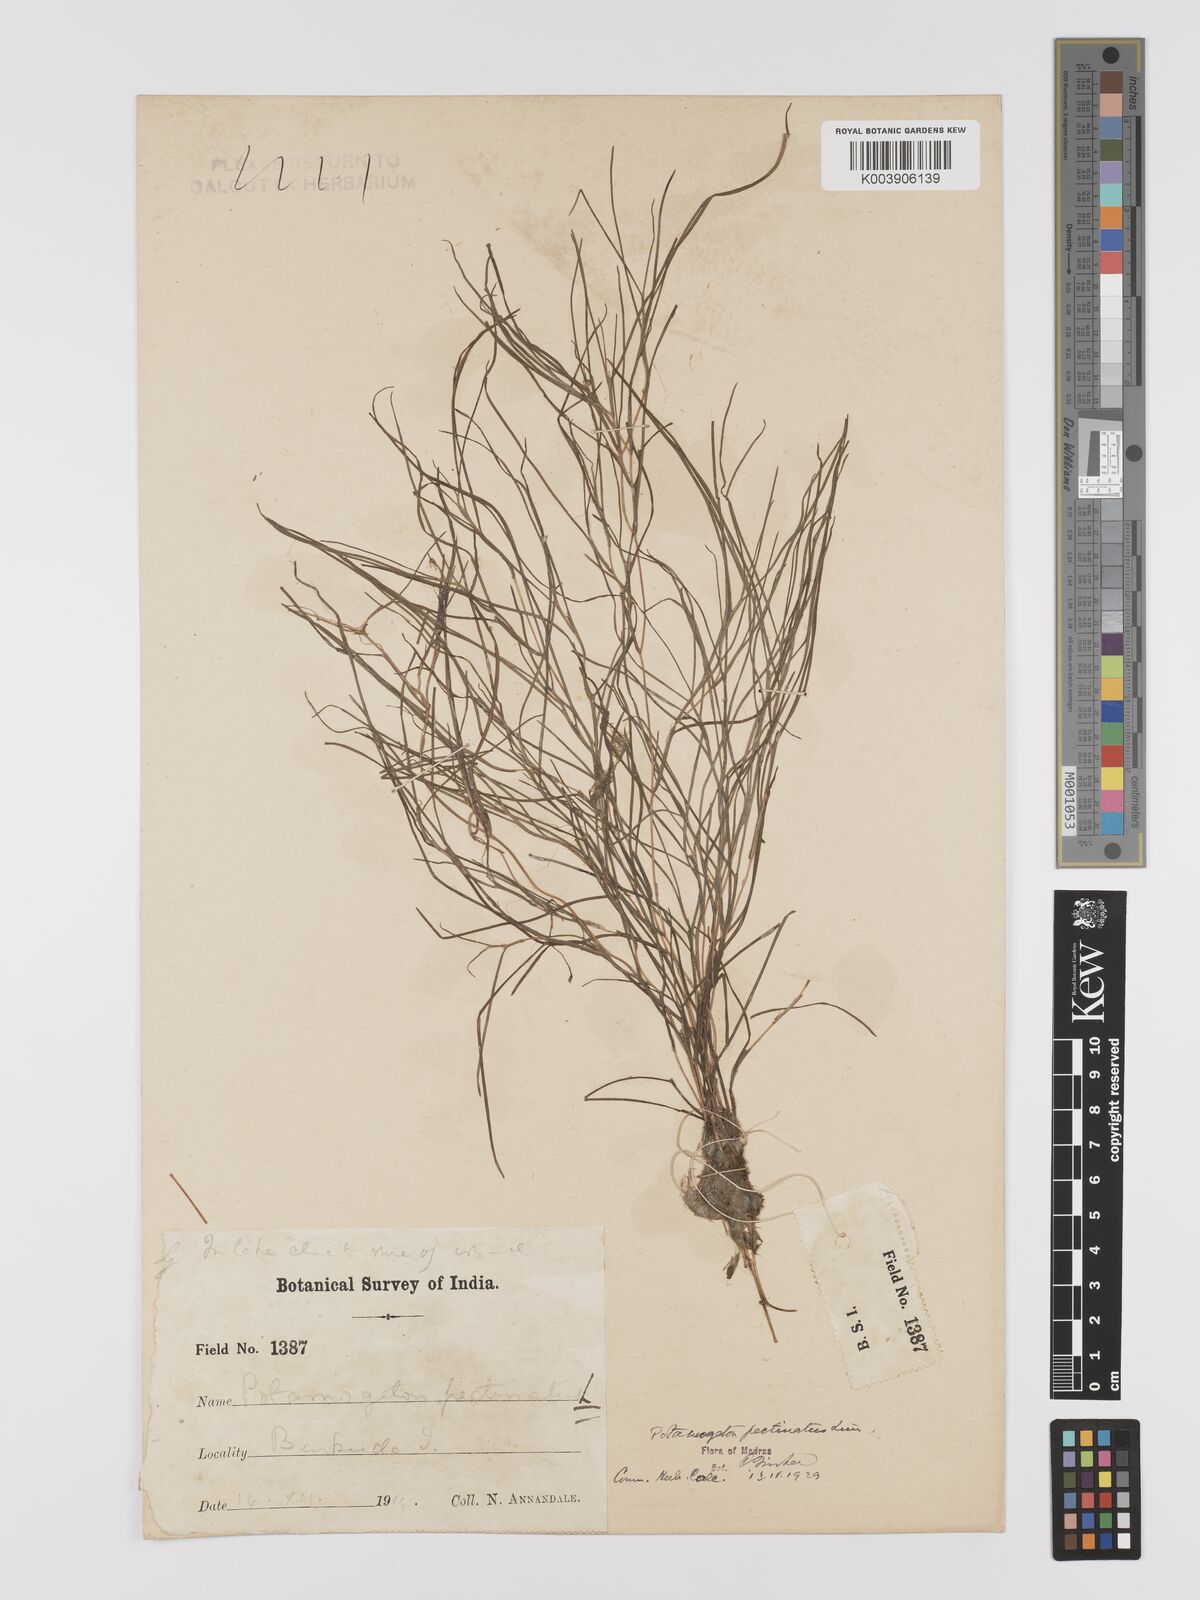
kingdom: Plantae
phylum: Tracheophyta
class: Liliopsida
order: Alismatales
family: Potamogetonaceae
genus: Stuckenia
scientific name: Stuckenia pectinata
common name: Sago pondweed
